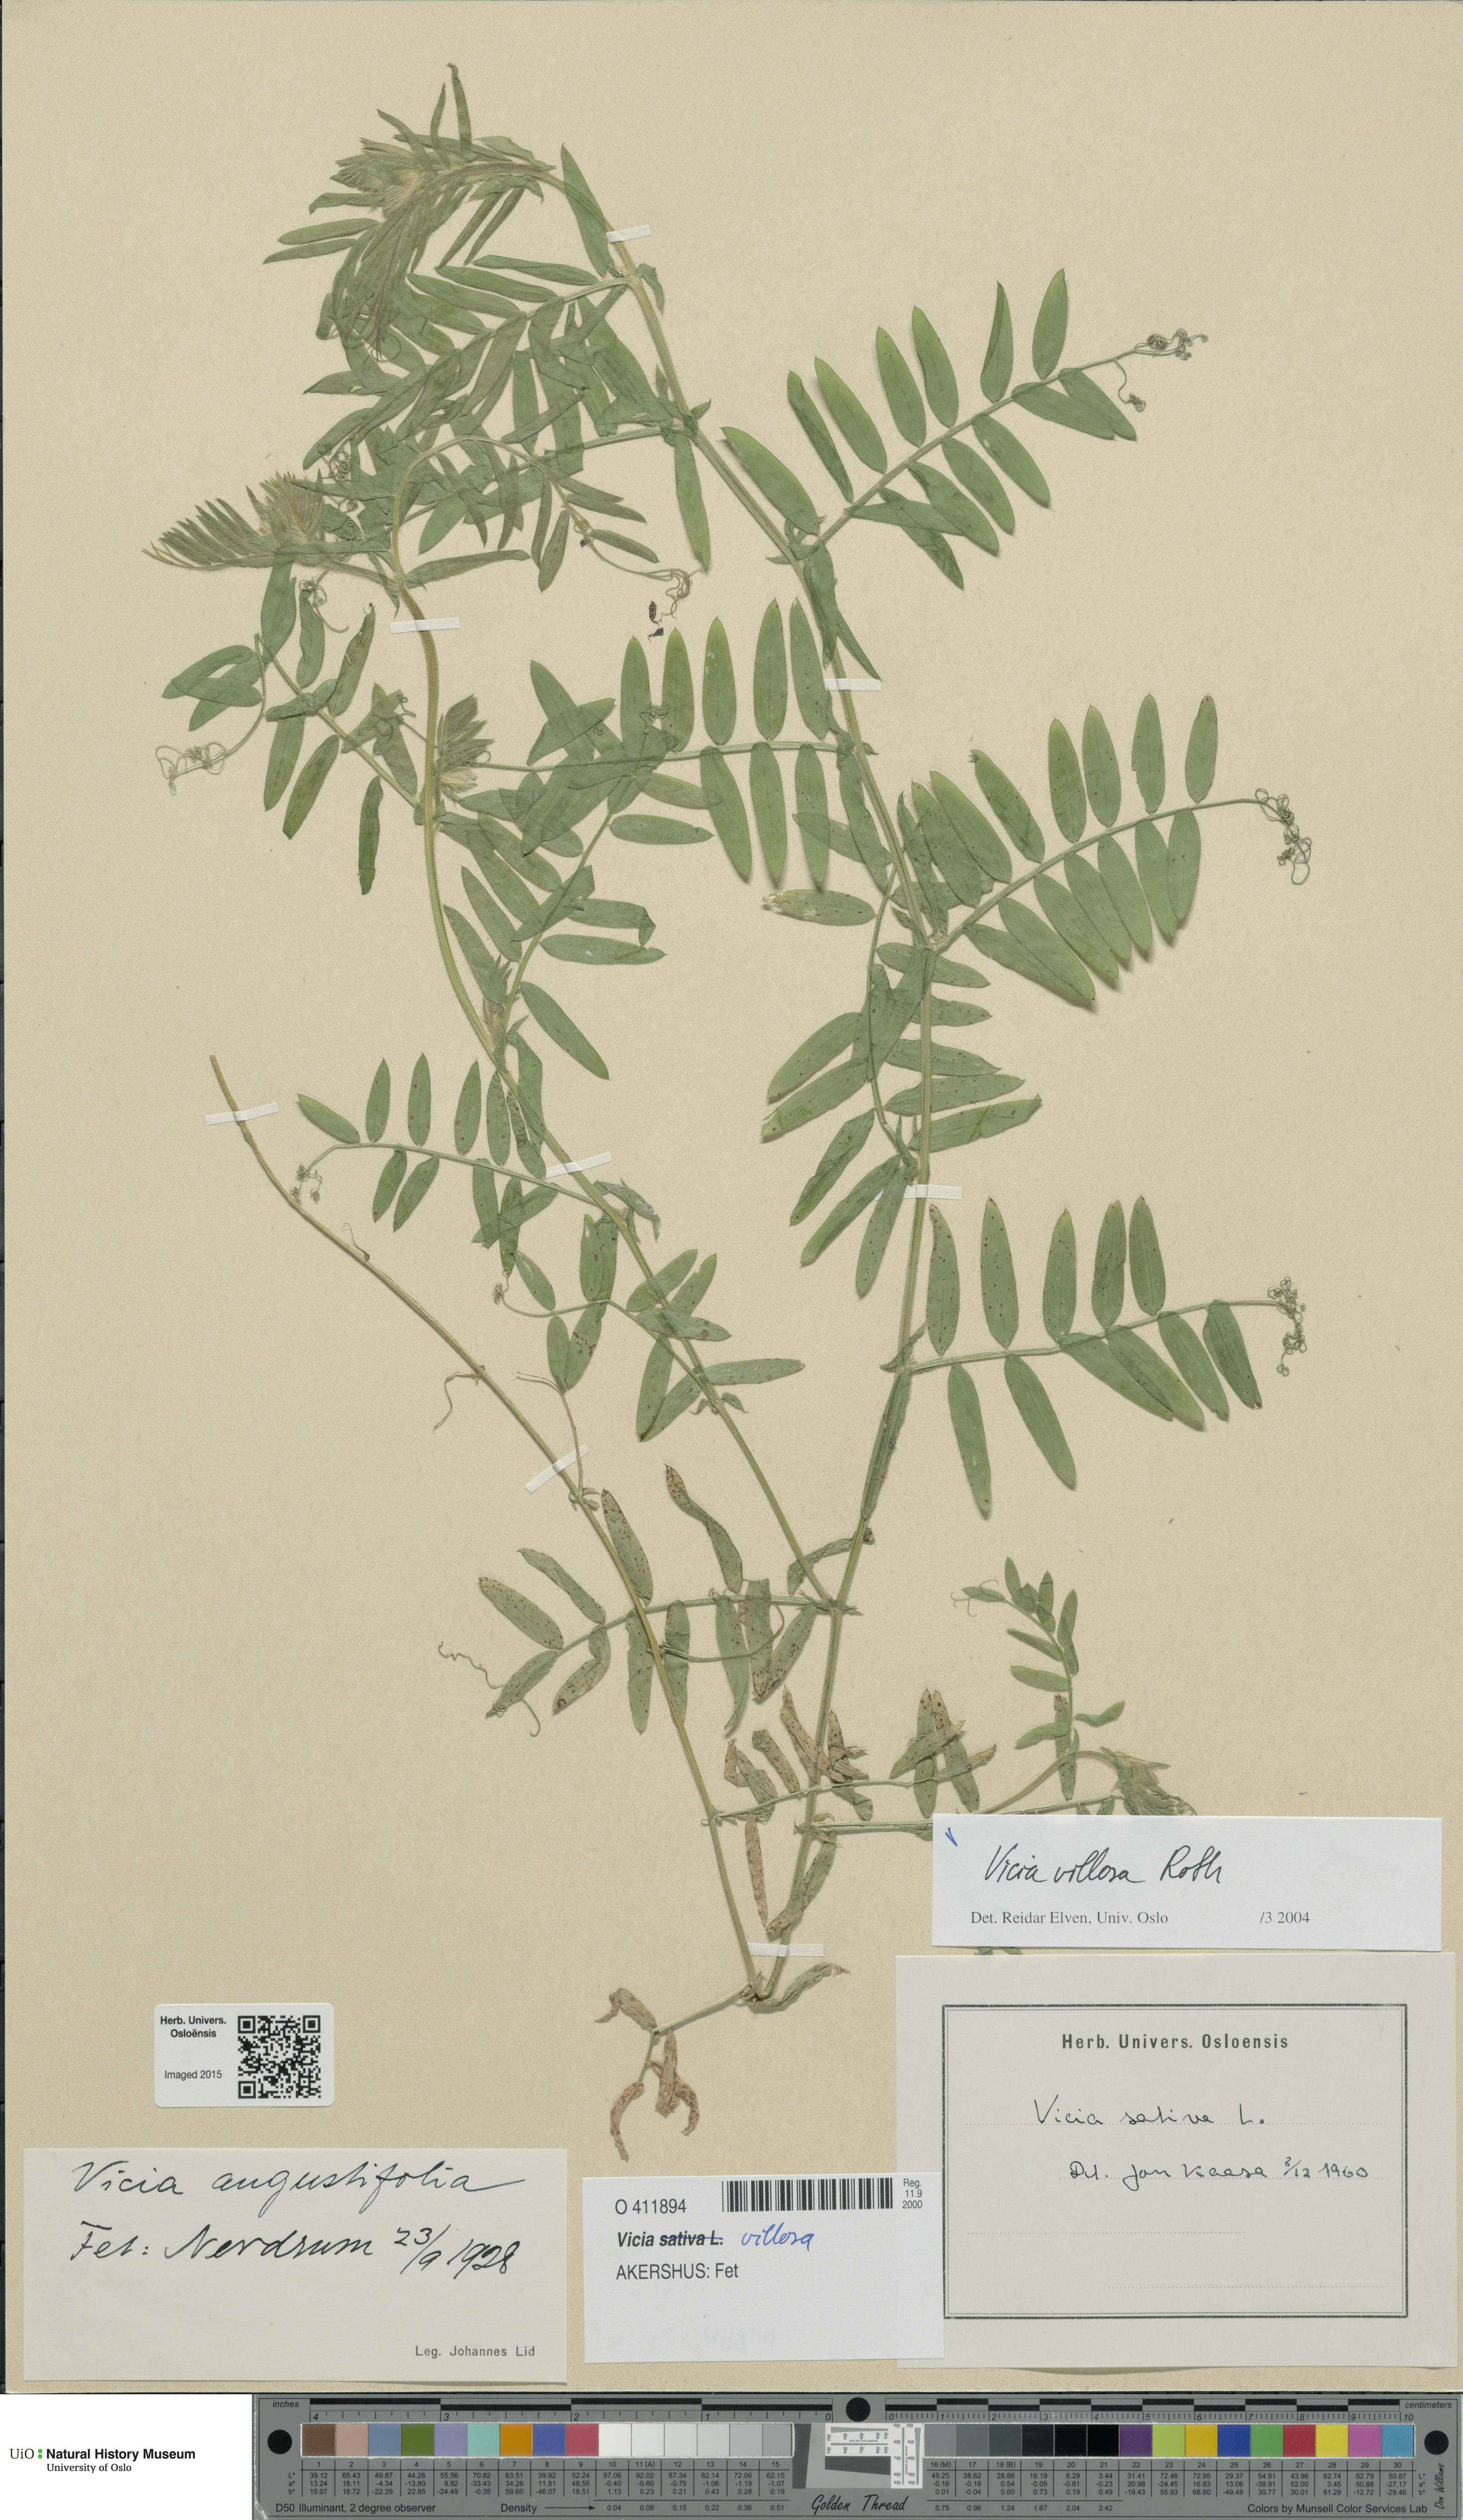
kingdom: Plantae
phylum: Tracheophyta
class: Magnoliopsida
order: Fabales
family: Fabaceae
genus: Vicia
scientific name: Vicia villosa
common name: Fodder vetch
